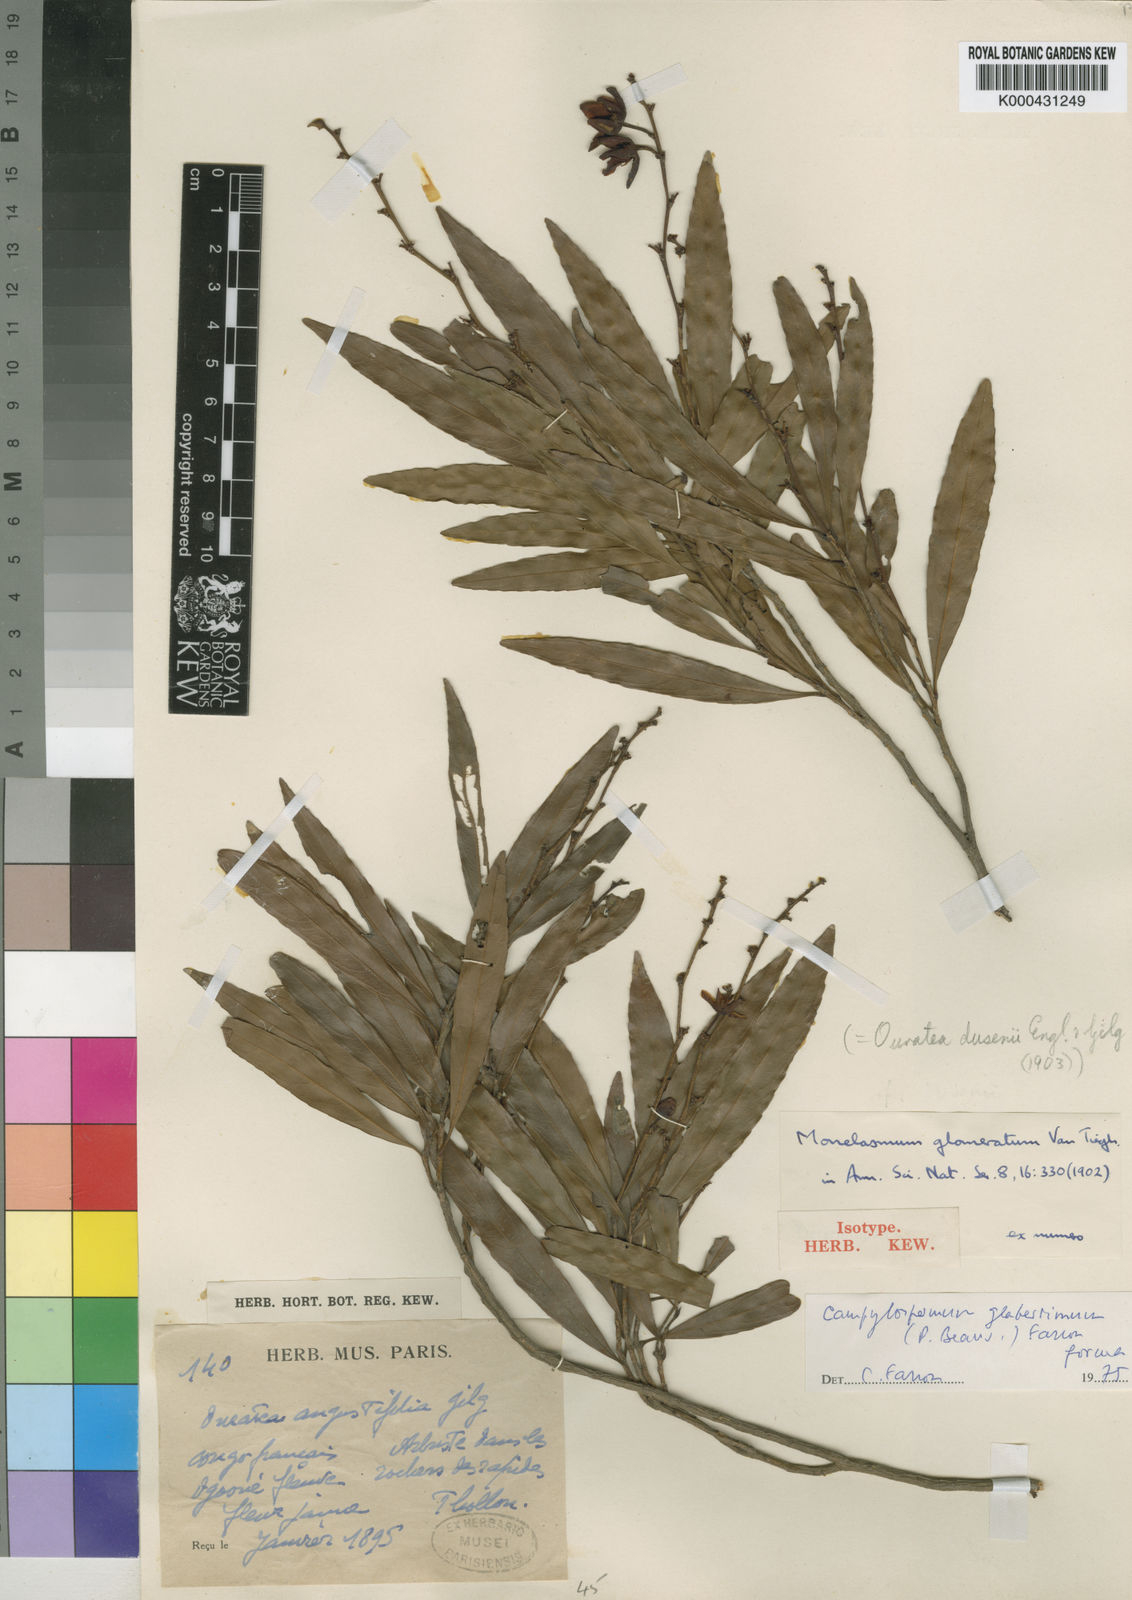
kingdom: Plantae
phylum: Tracheophyta
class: Magnoliopsida
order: Malpighiales
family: Ochnaceae
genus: Campylospermum
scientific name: Campylospermum glaberrimum
